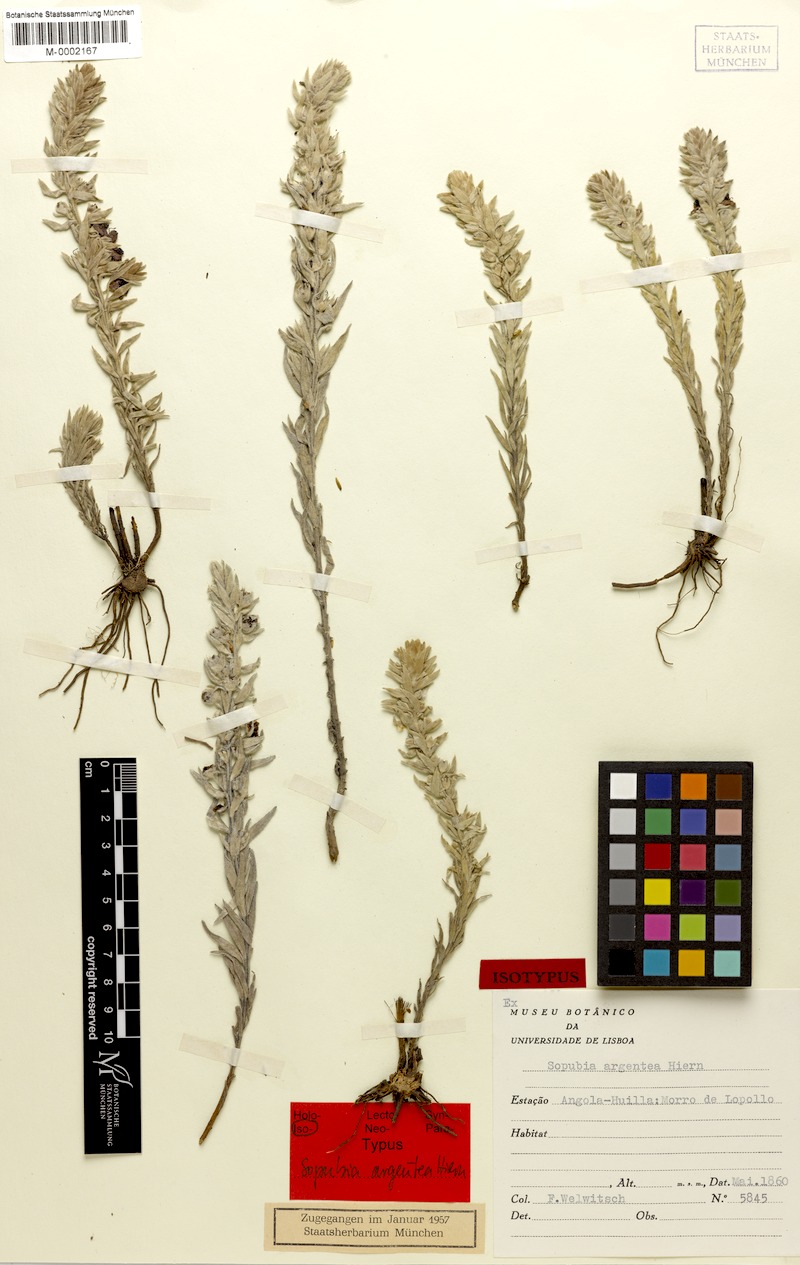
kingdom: Plantae
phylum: Tracheophyta
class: Magnoliopsida
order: Lamiales
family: Orobanchaceae
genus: Sopubia
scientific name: Sopubia argentea
